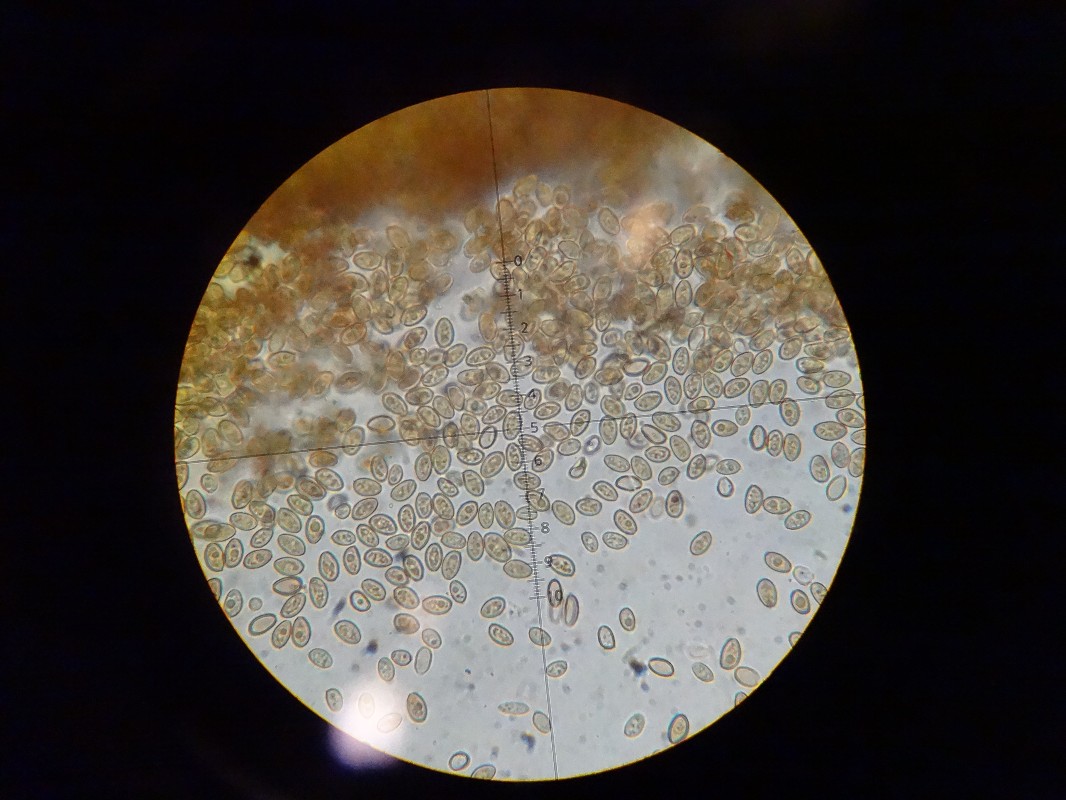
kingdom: Fungi
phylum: Basidiomycota
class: Agaricomycetes
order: Agaricales
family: Strophariaceae
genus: Hypholoma
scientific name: Hypholoma subericaeum
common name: eng-svovlhat
